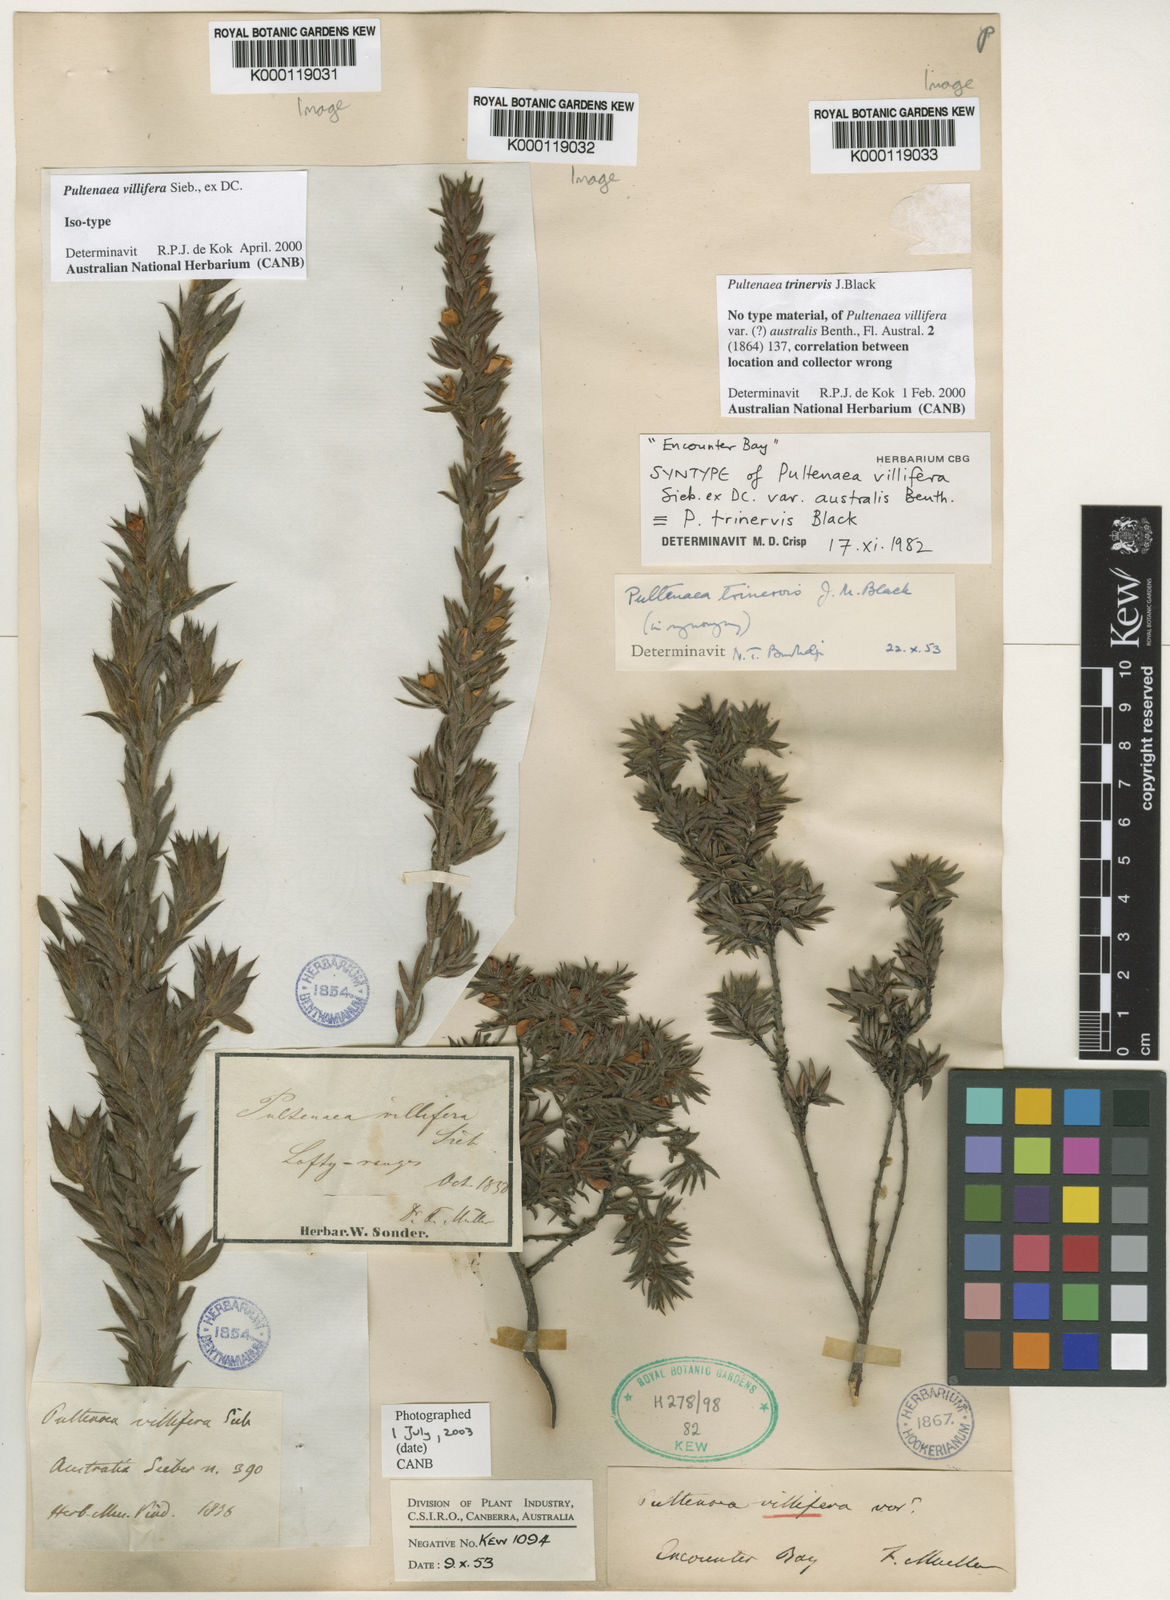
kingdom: Plantae
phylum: Tracheophyta
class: Magnoliopsida
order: Fabales
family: Fabaceae
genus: Pultenaea
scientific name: Pultenaea trinervis
